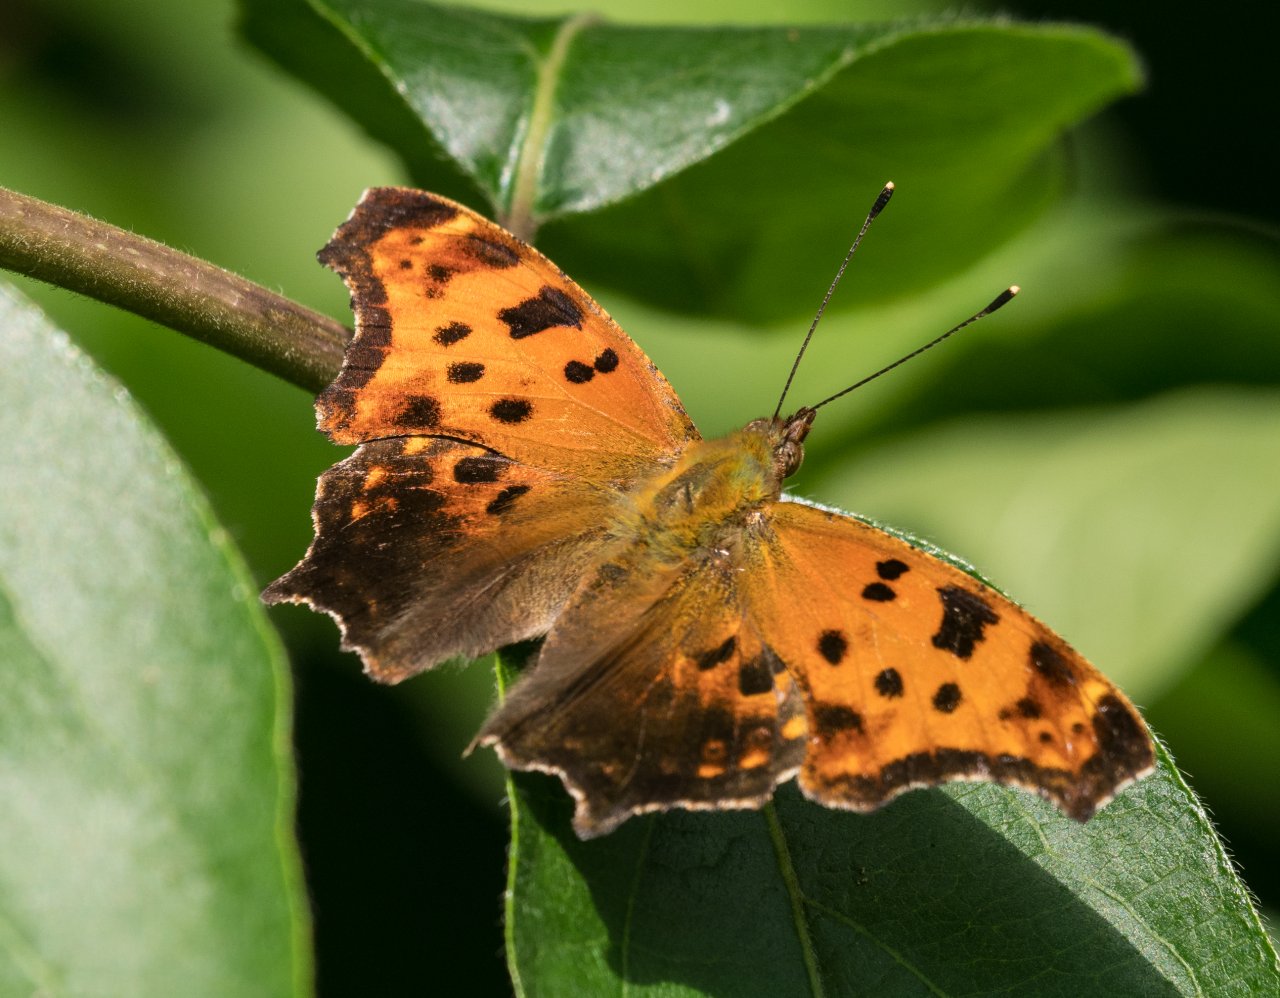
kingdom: Animalia
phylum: Arthropoda
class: Insecta
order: Lepidoptera
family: Nymphalidae
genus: Polygonia
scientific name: Polygonia comma
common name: Eastern Comma
